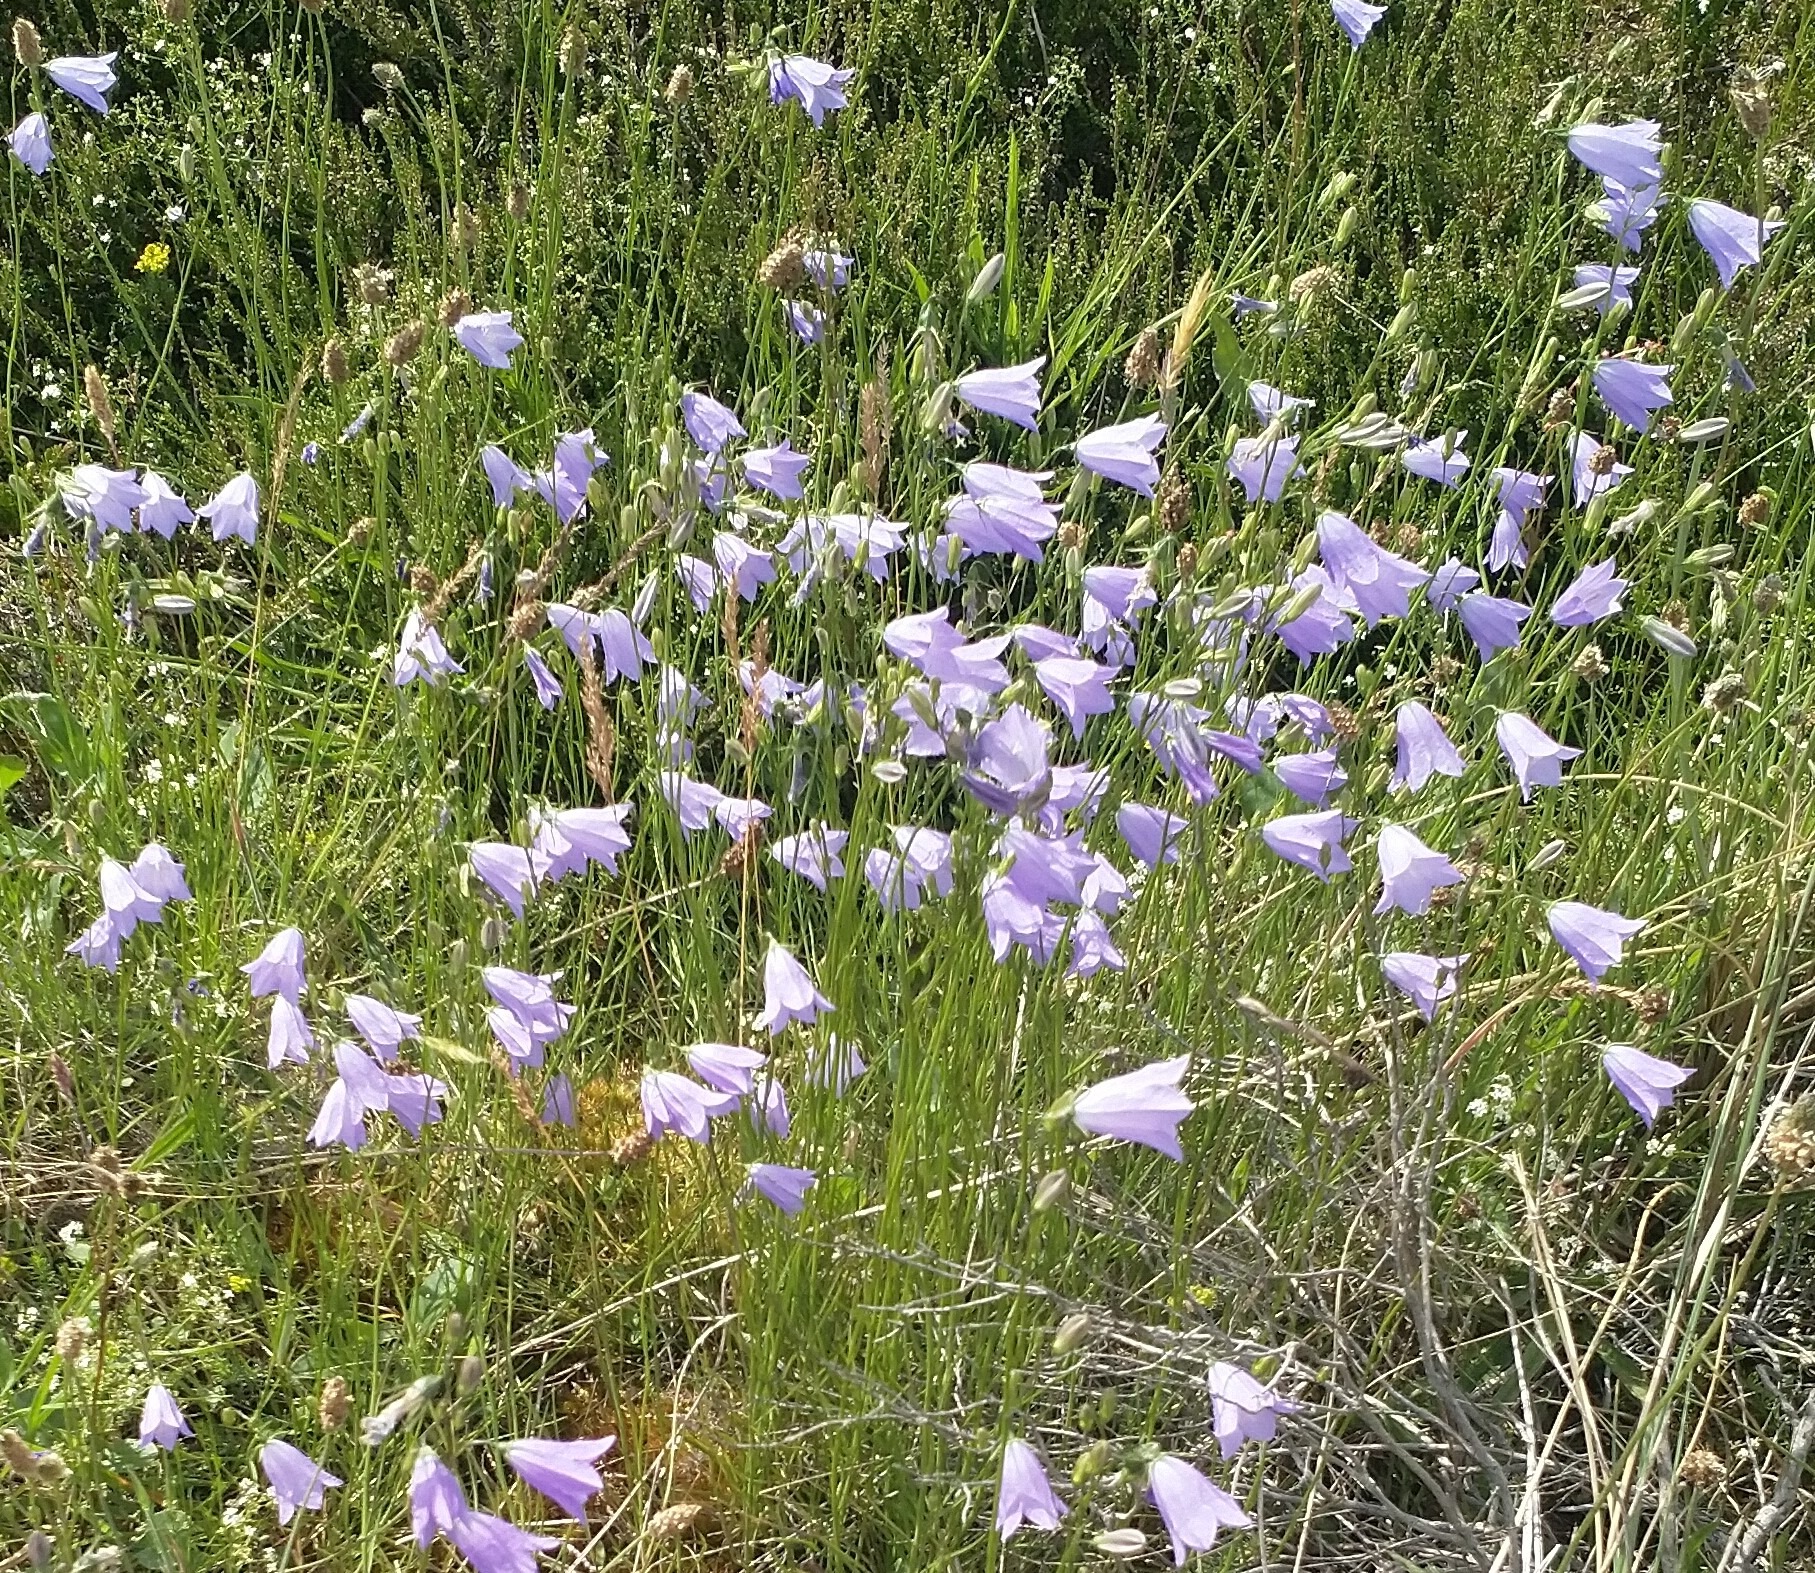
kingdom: Plantae
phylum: Tracheophyta
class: Magnoliopsida
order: Asterales
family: Campanulaceae
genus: Campanula
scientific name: Campanula rotundifolia
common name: Liden klokke
